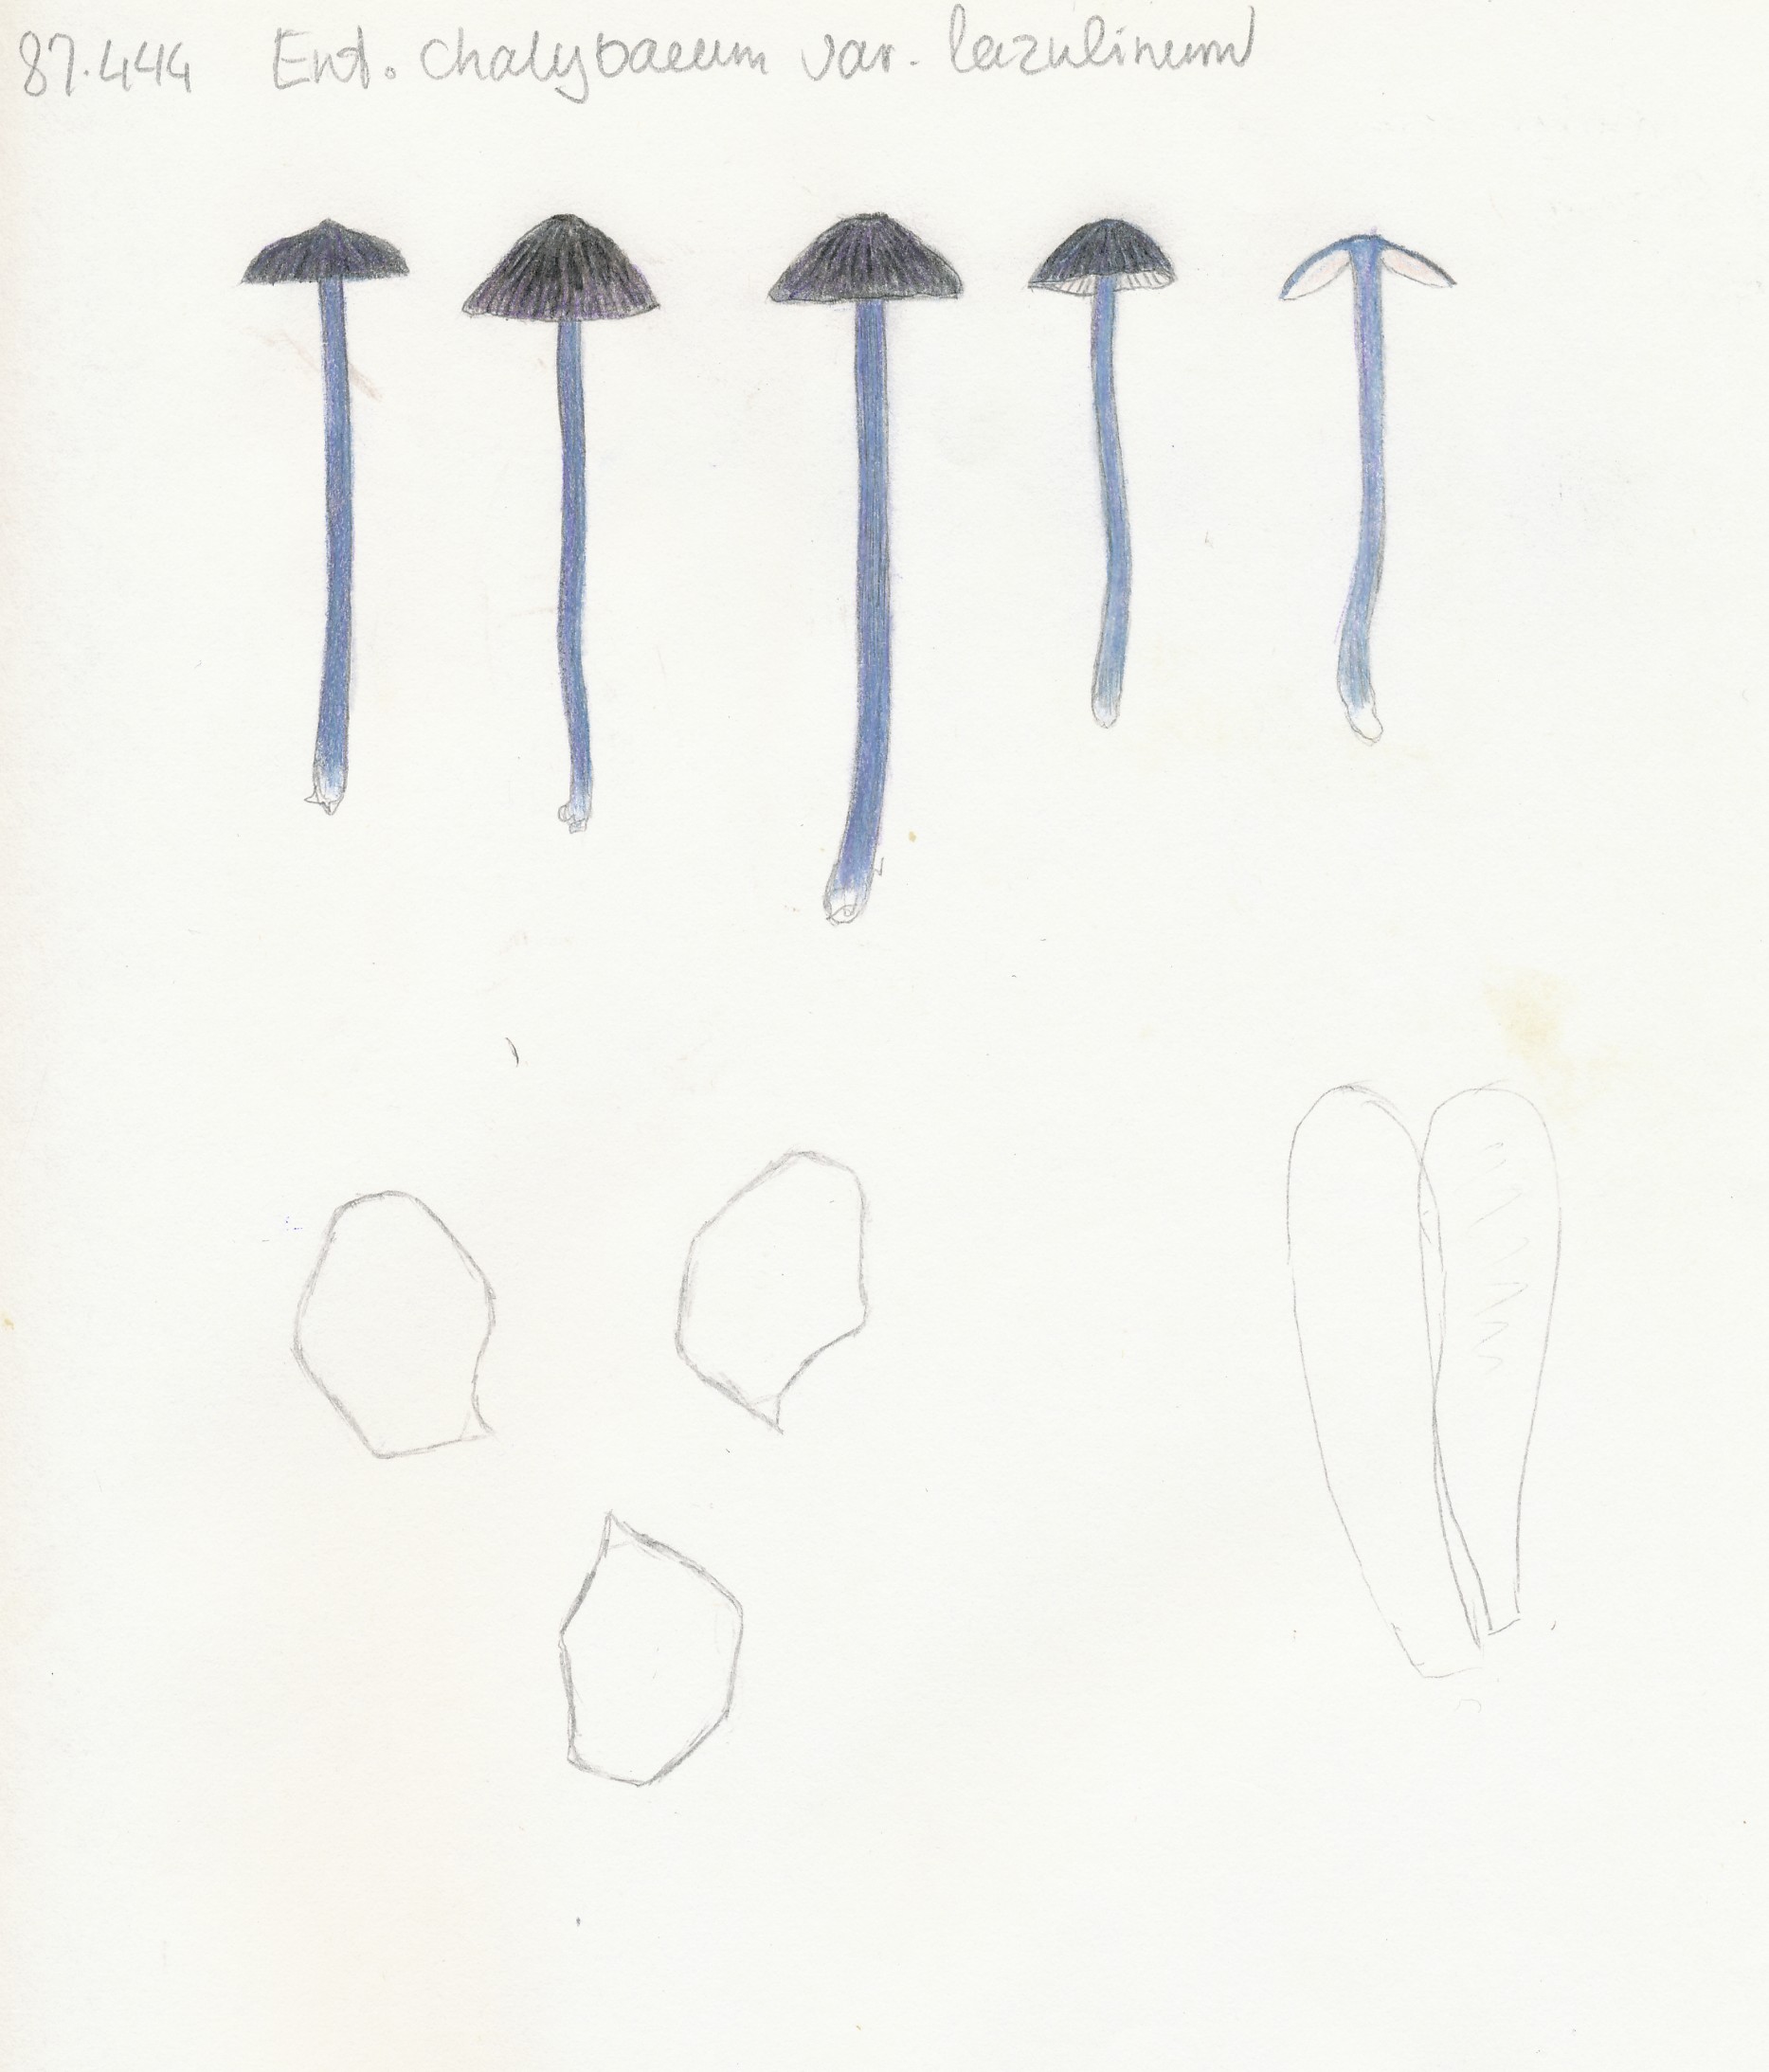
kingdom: Fungi
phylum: Basidiomycota
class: Agaricomycetes
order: Agaricales
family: Entolomataceae
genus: Entoloma
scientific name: Entoloma
